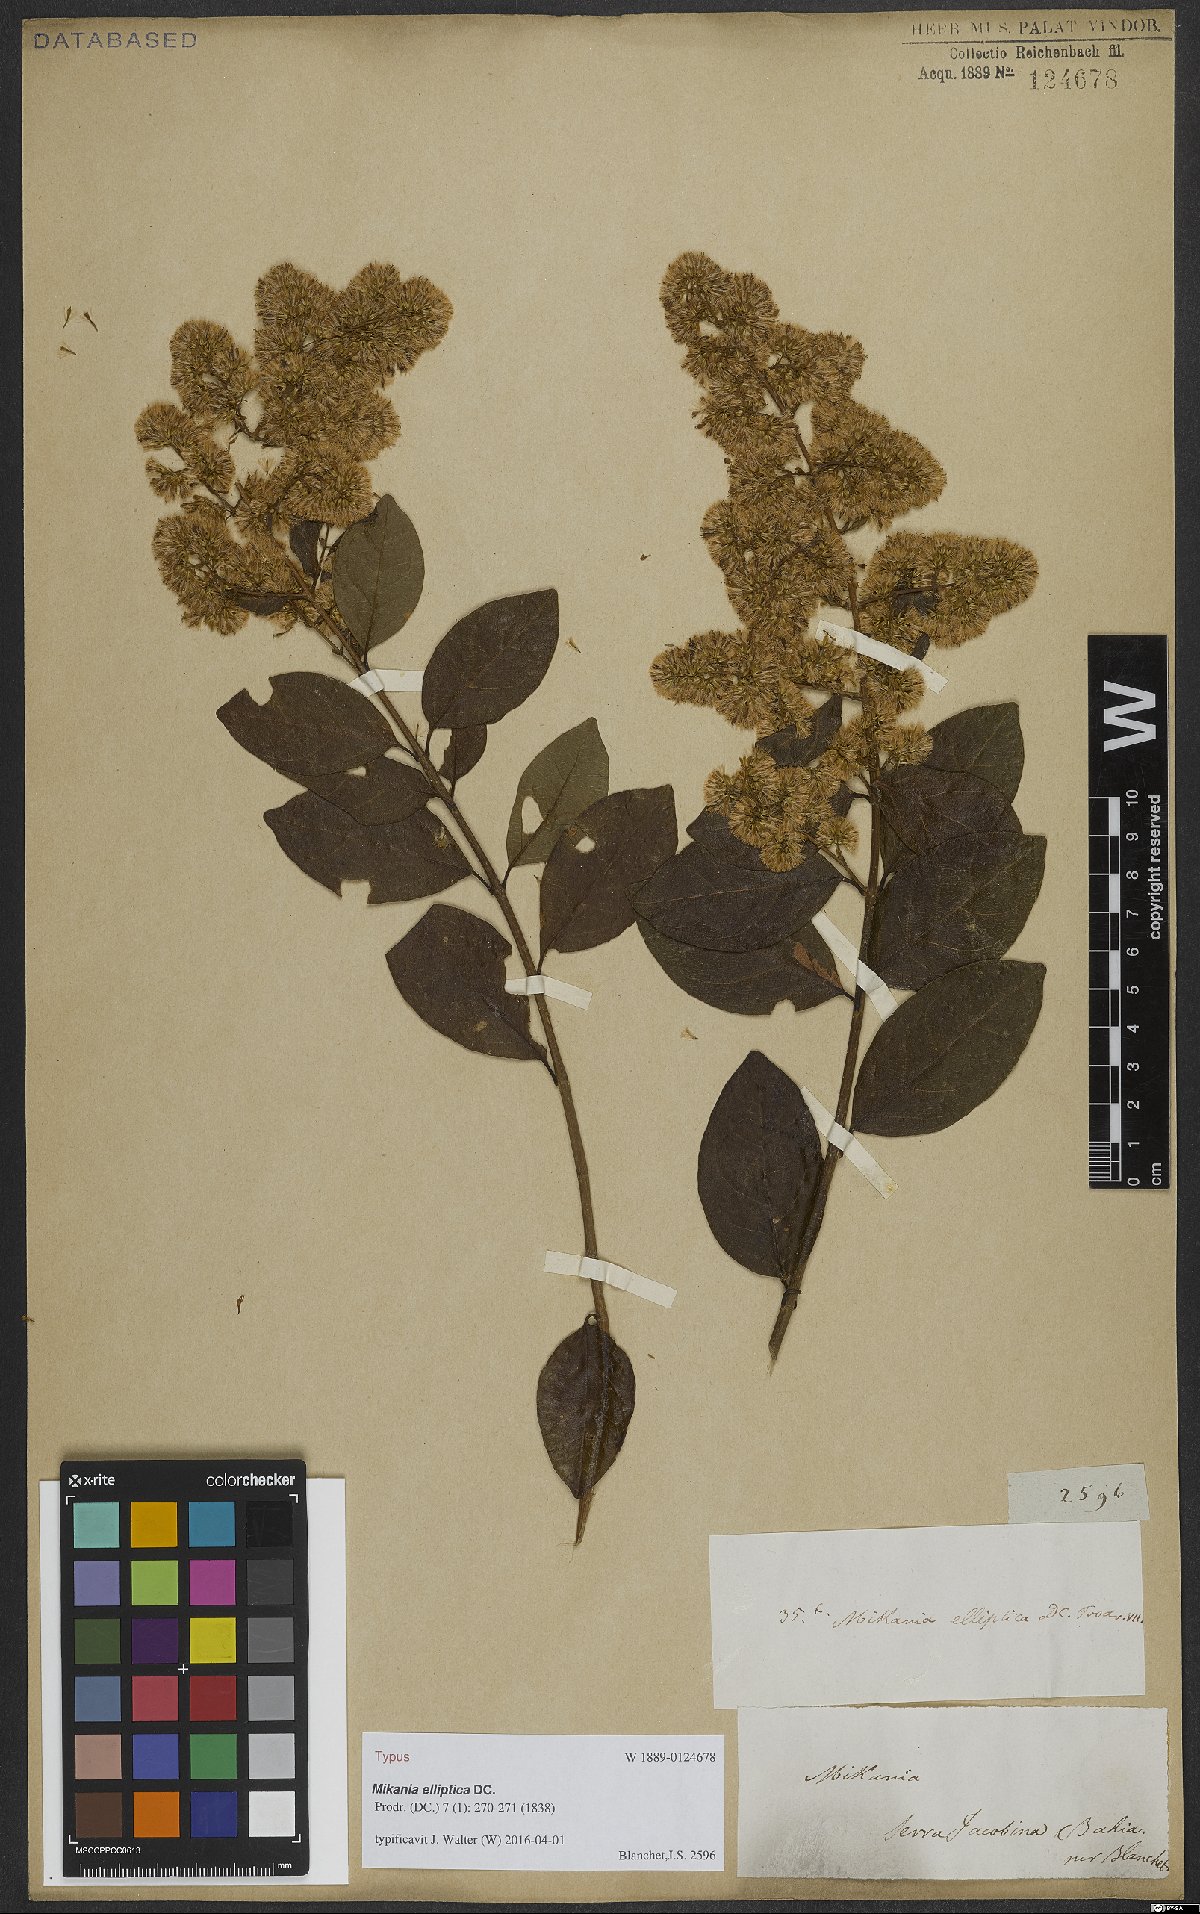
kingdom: Plantae
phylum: Tracheophyta
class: Magnoliopsida
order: Asterales
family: Asteraceae
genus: Mikania
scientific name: Mikania elliptica
